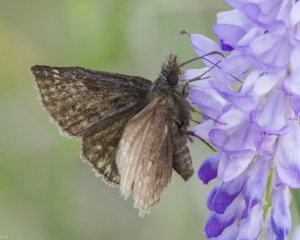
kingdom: Animalia
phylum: Arthropoda
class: Insecta
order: Lepidoptera
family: Hesperiidae
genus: Erynnis
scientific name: Erynnis icelus
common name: Dreamy Duskywing
